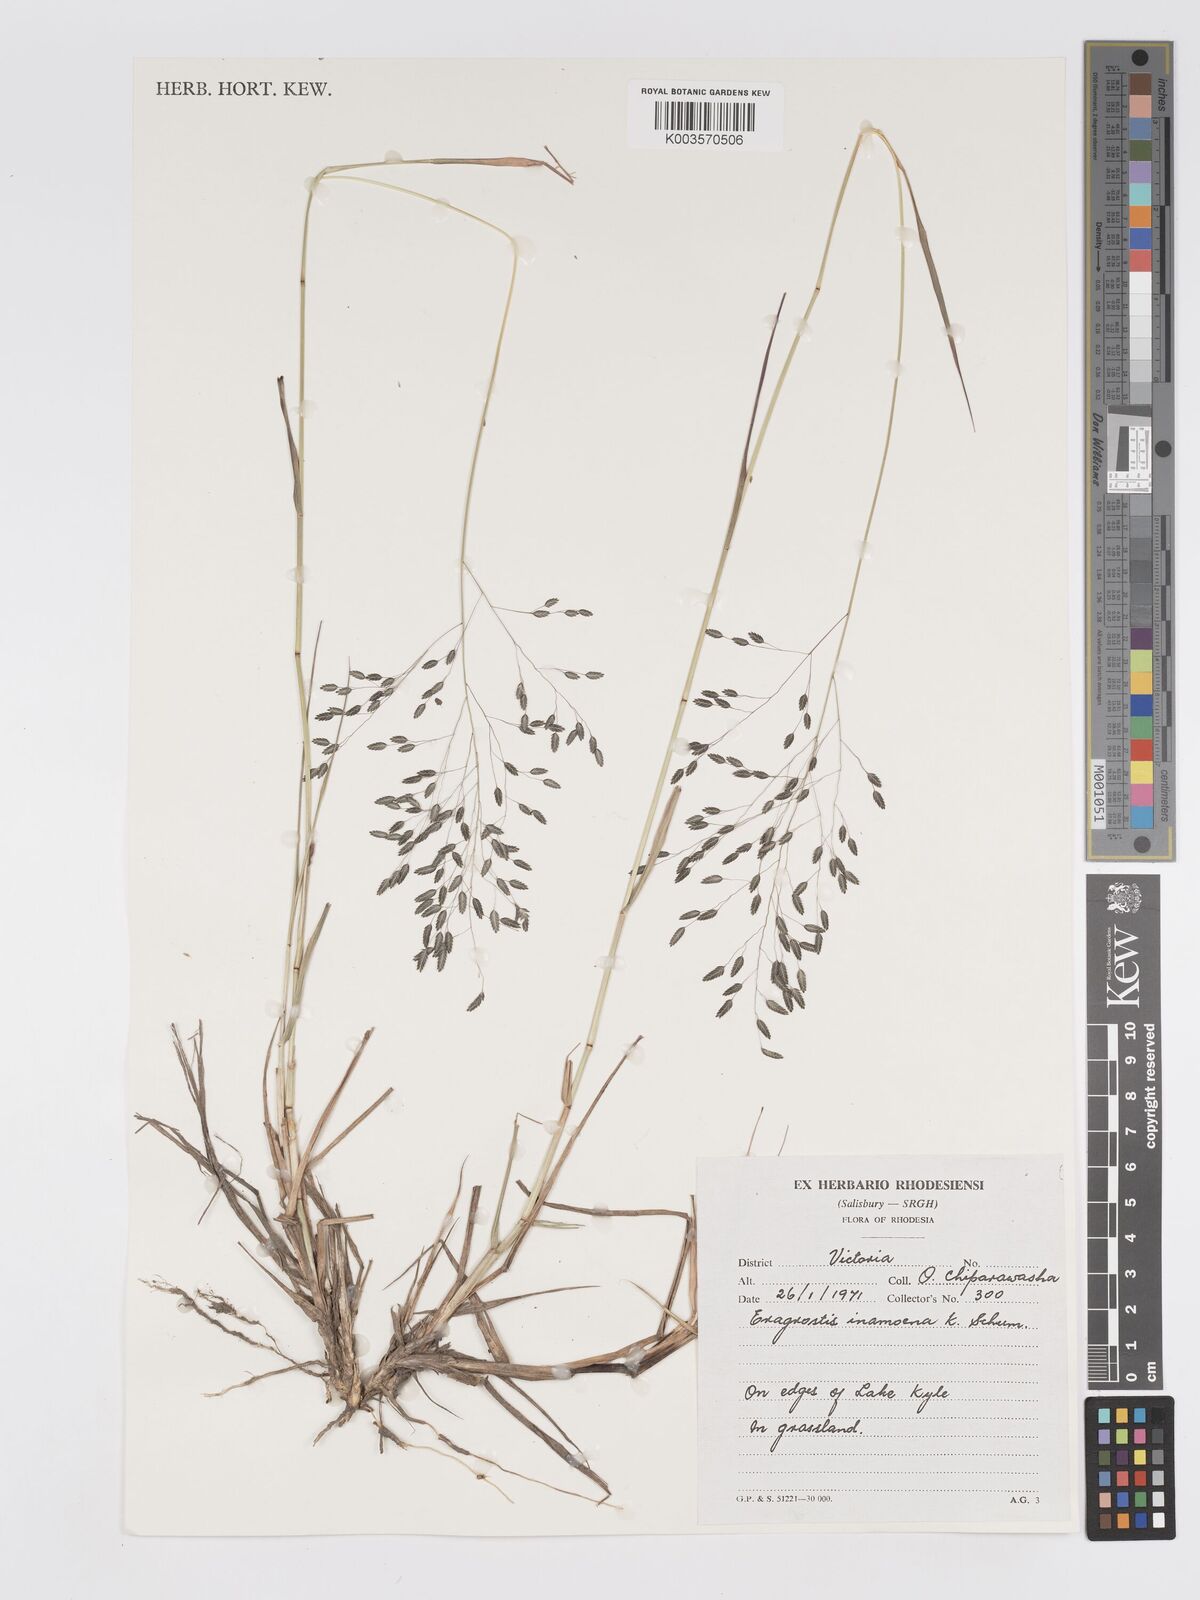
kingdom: Plantae
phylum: Tracheophyta
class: Liliopsida
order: Poales
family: Poaceae
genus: Eragrostis
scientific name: Eragrostis inamoena
